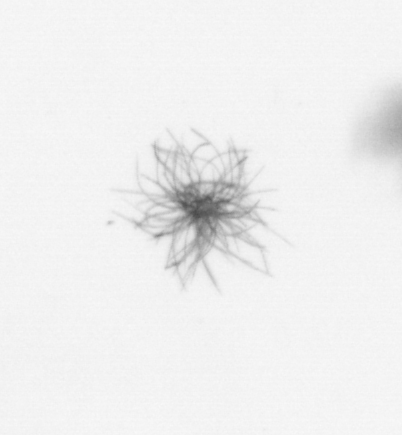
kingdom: Bacteria
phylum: Cyanobacteria
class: Cyanobacteriia
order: Cyanobacteriales
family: Microcoleaceae
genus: Trichodesmium
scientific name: Trichodesmium
